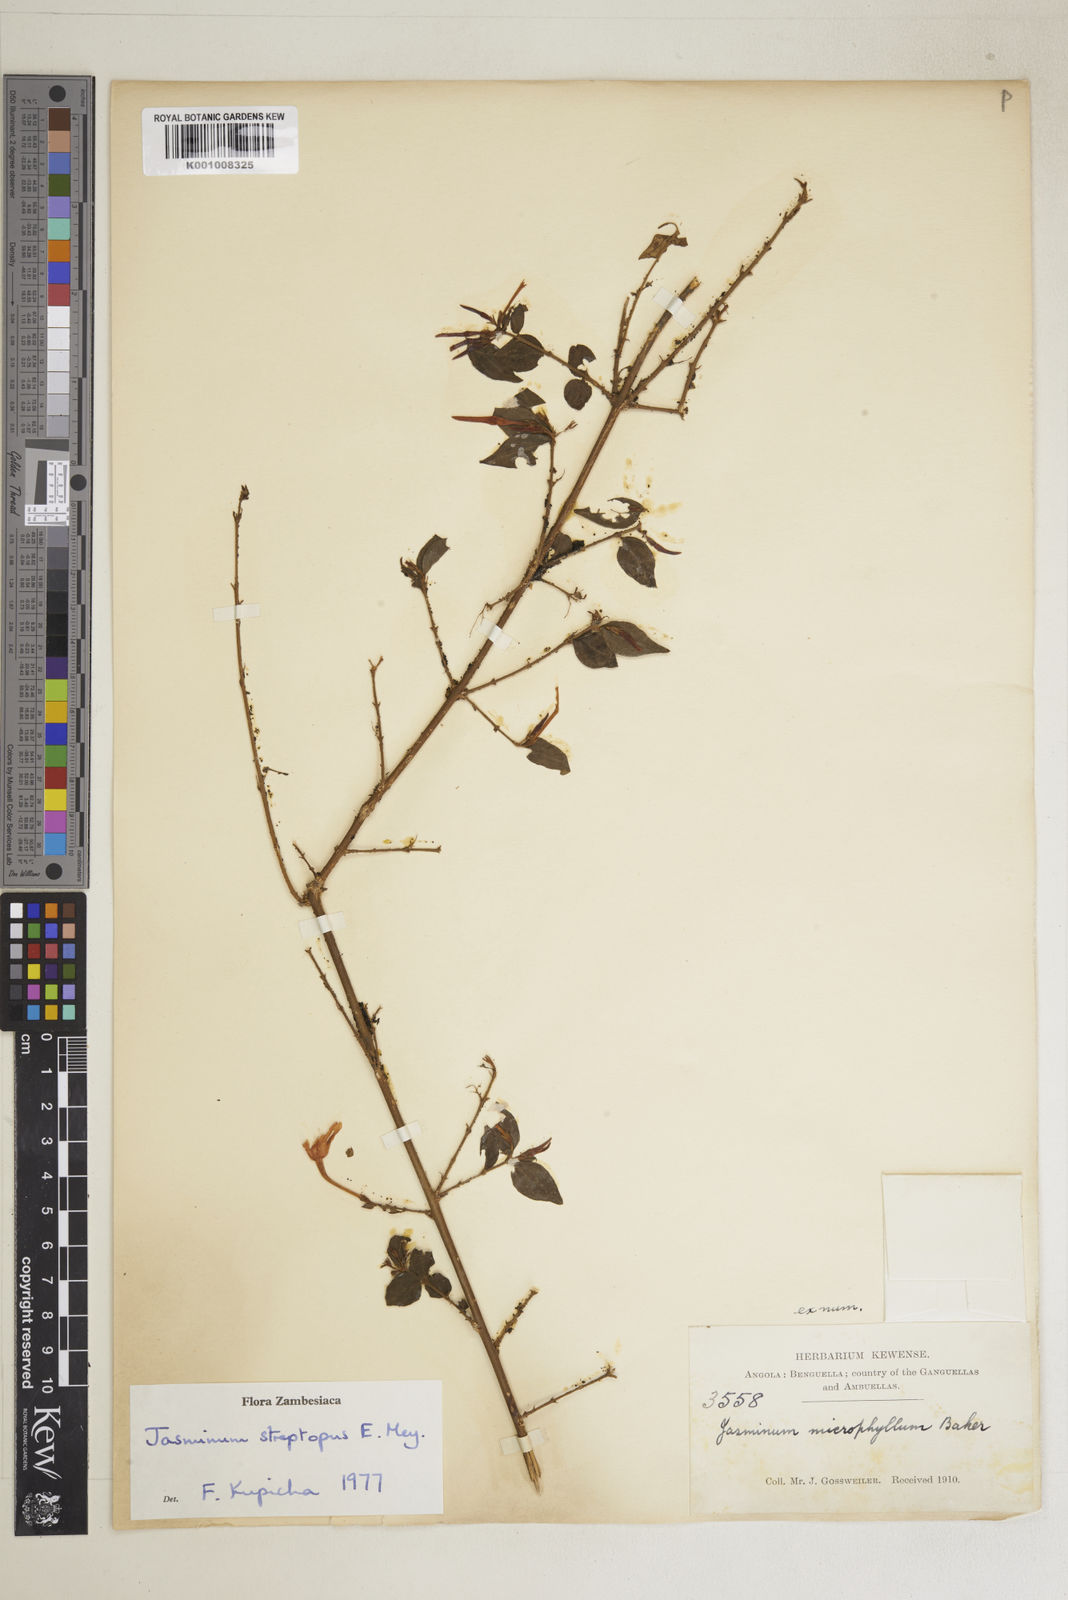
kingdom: Plantae
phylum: Tracheophyta
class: Magnoliopsida
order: Lamiales
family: Oleaceae
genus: Jasminum
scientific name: Jasminum streptopus
